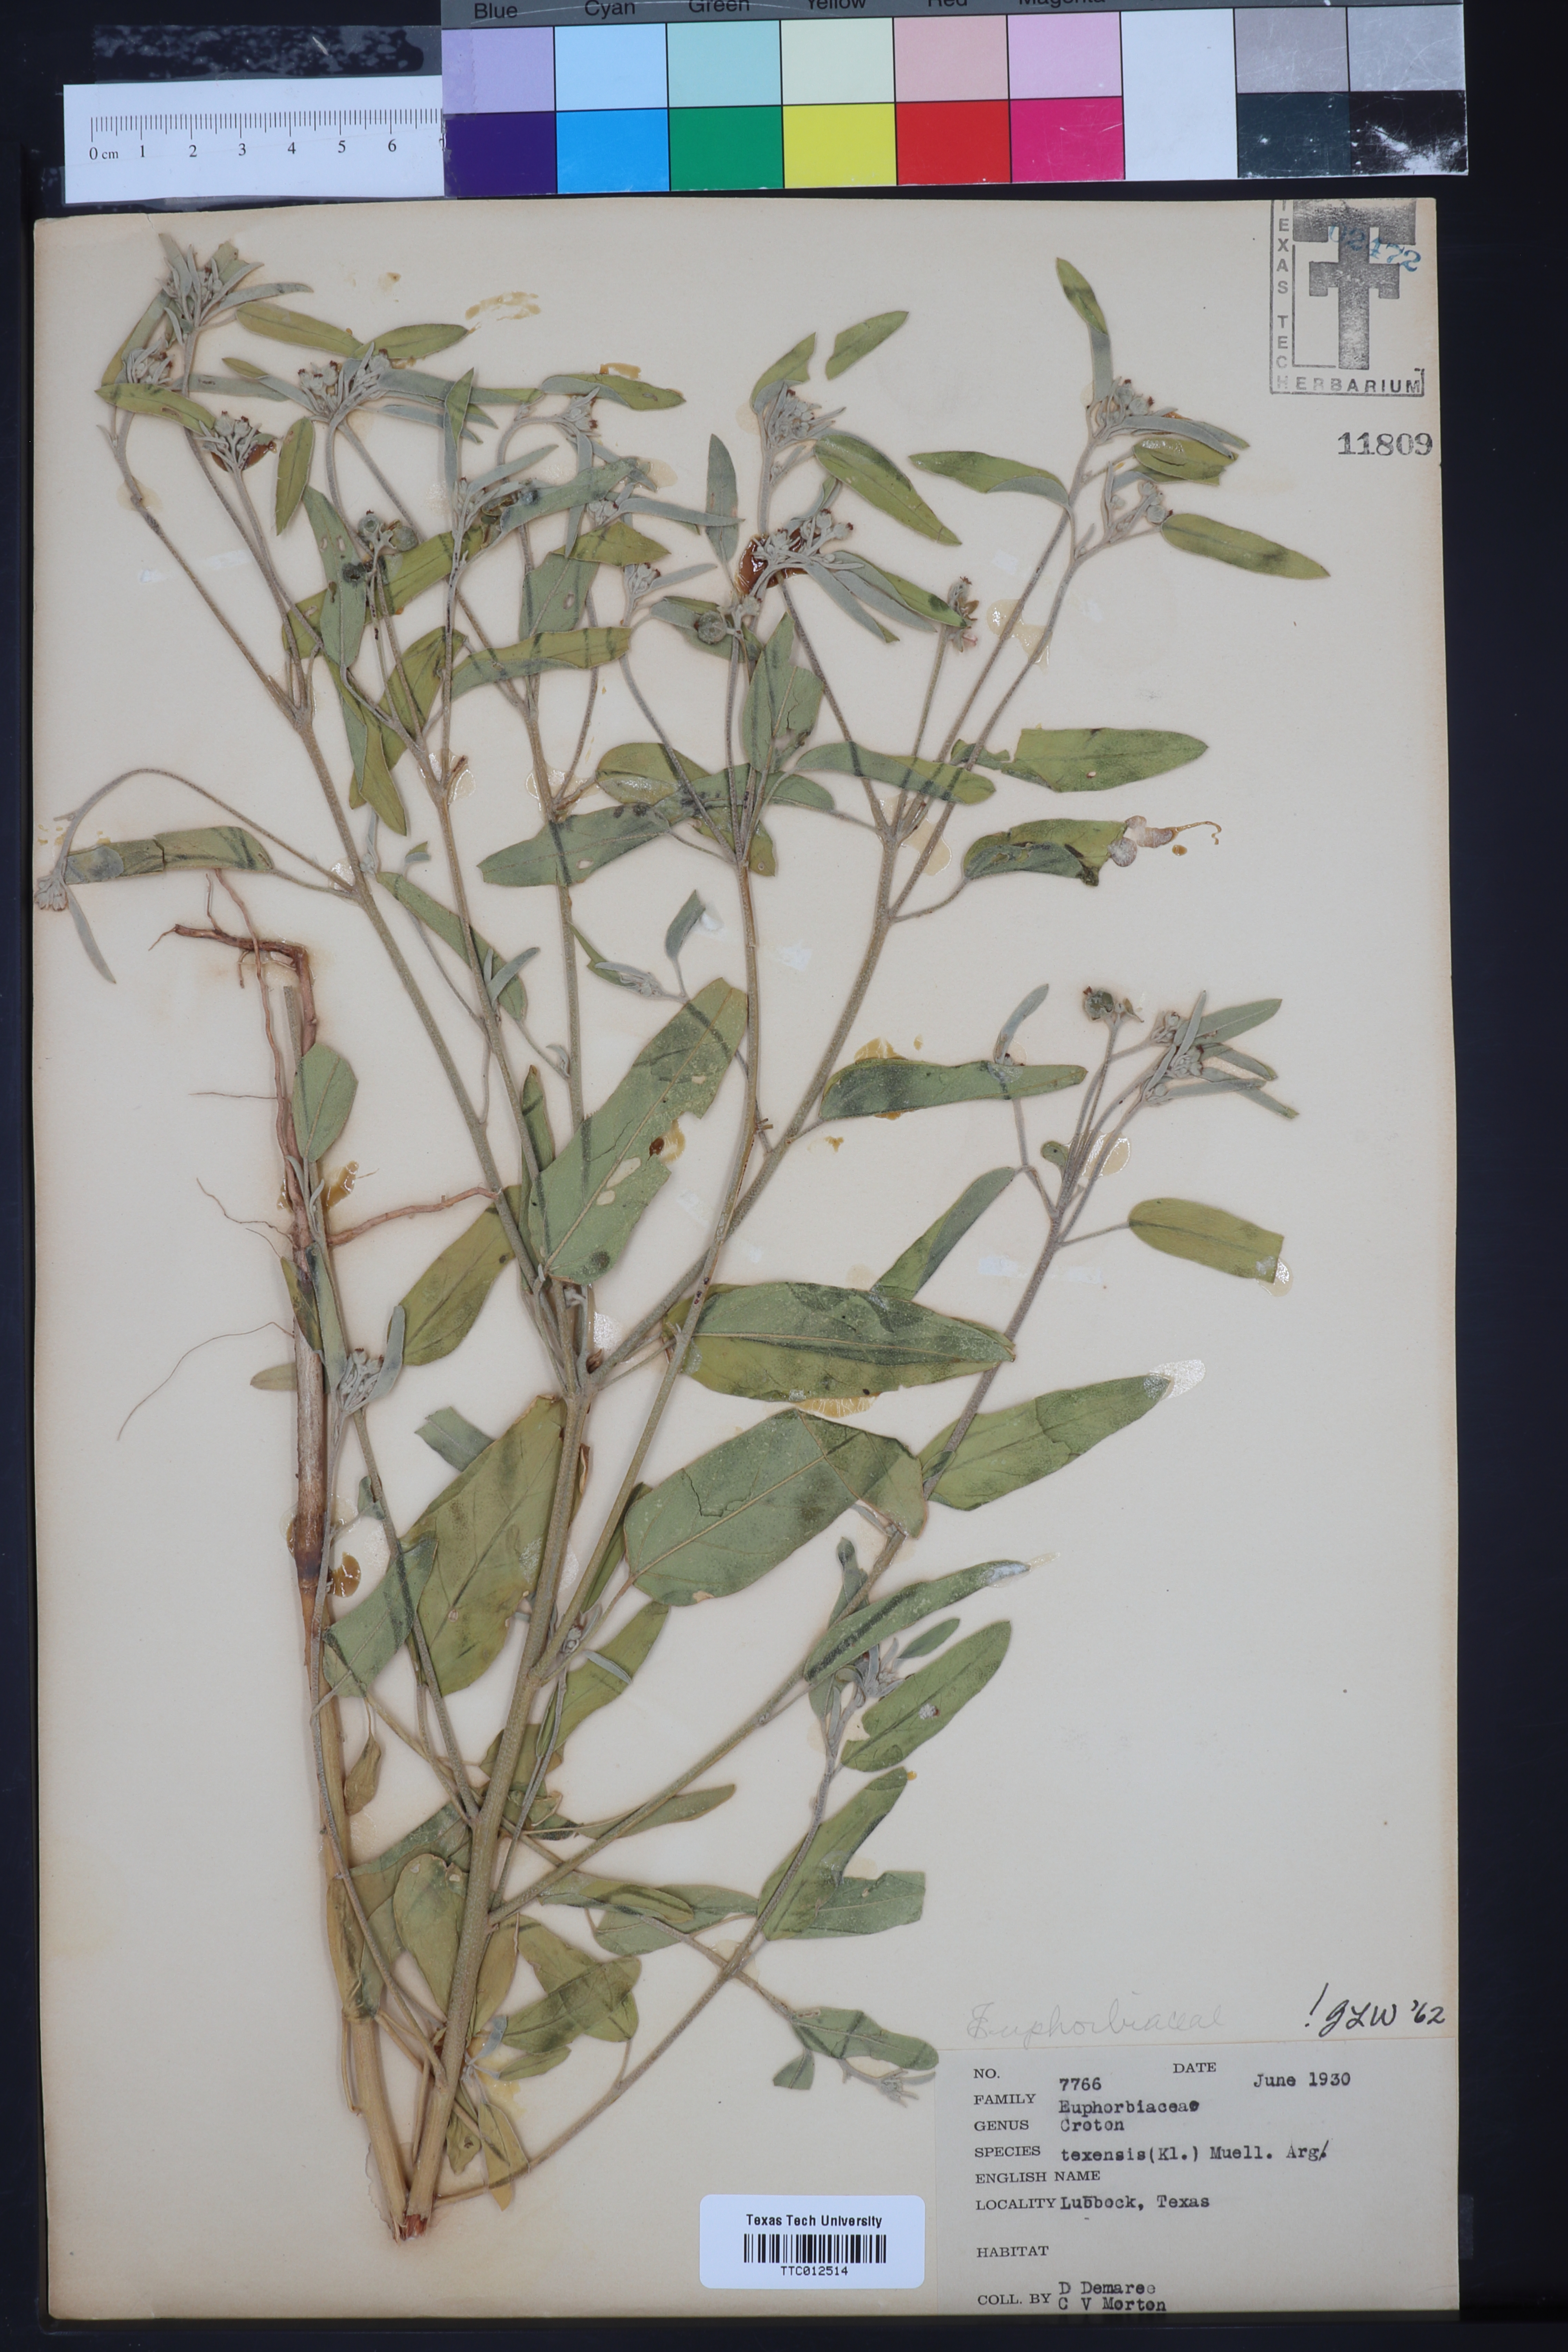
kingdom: Plantae
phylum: Tracheophyta
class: Magnoliopsida
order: Malpighiales
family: Euphorbiaceae
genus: Croton
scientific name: Croton texensis
